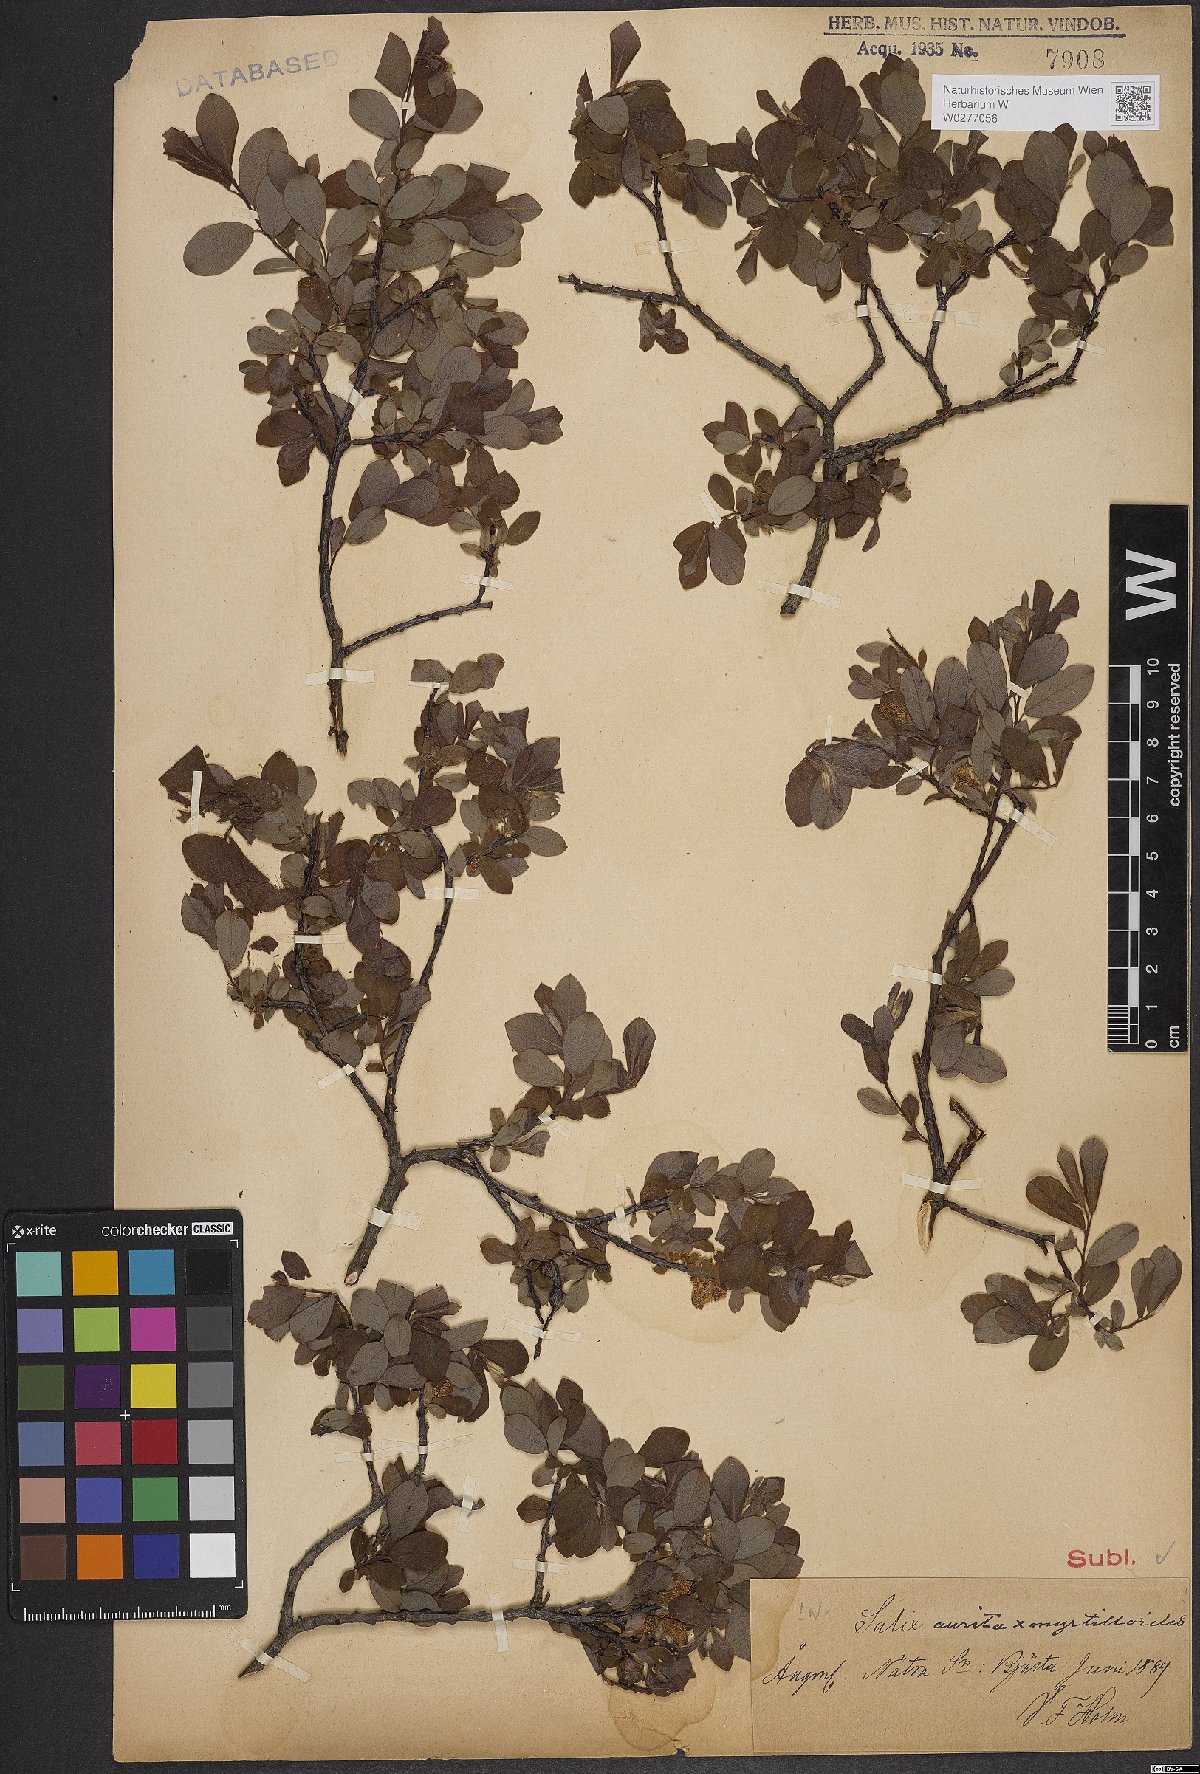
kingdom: Plantae
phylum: Tracheophyta
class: Magnoliopsida
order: Malpighiales
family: Salicaceae
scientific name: Salicaceae
